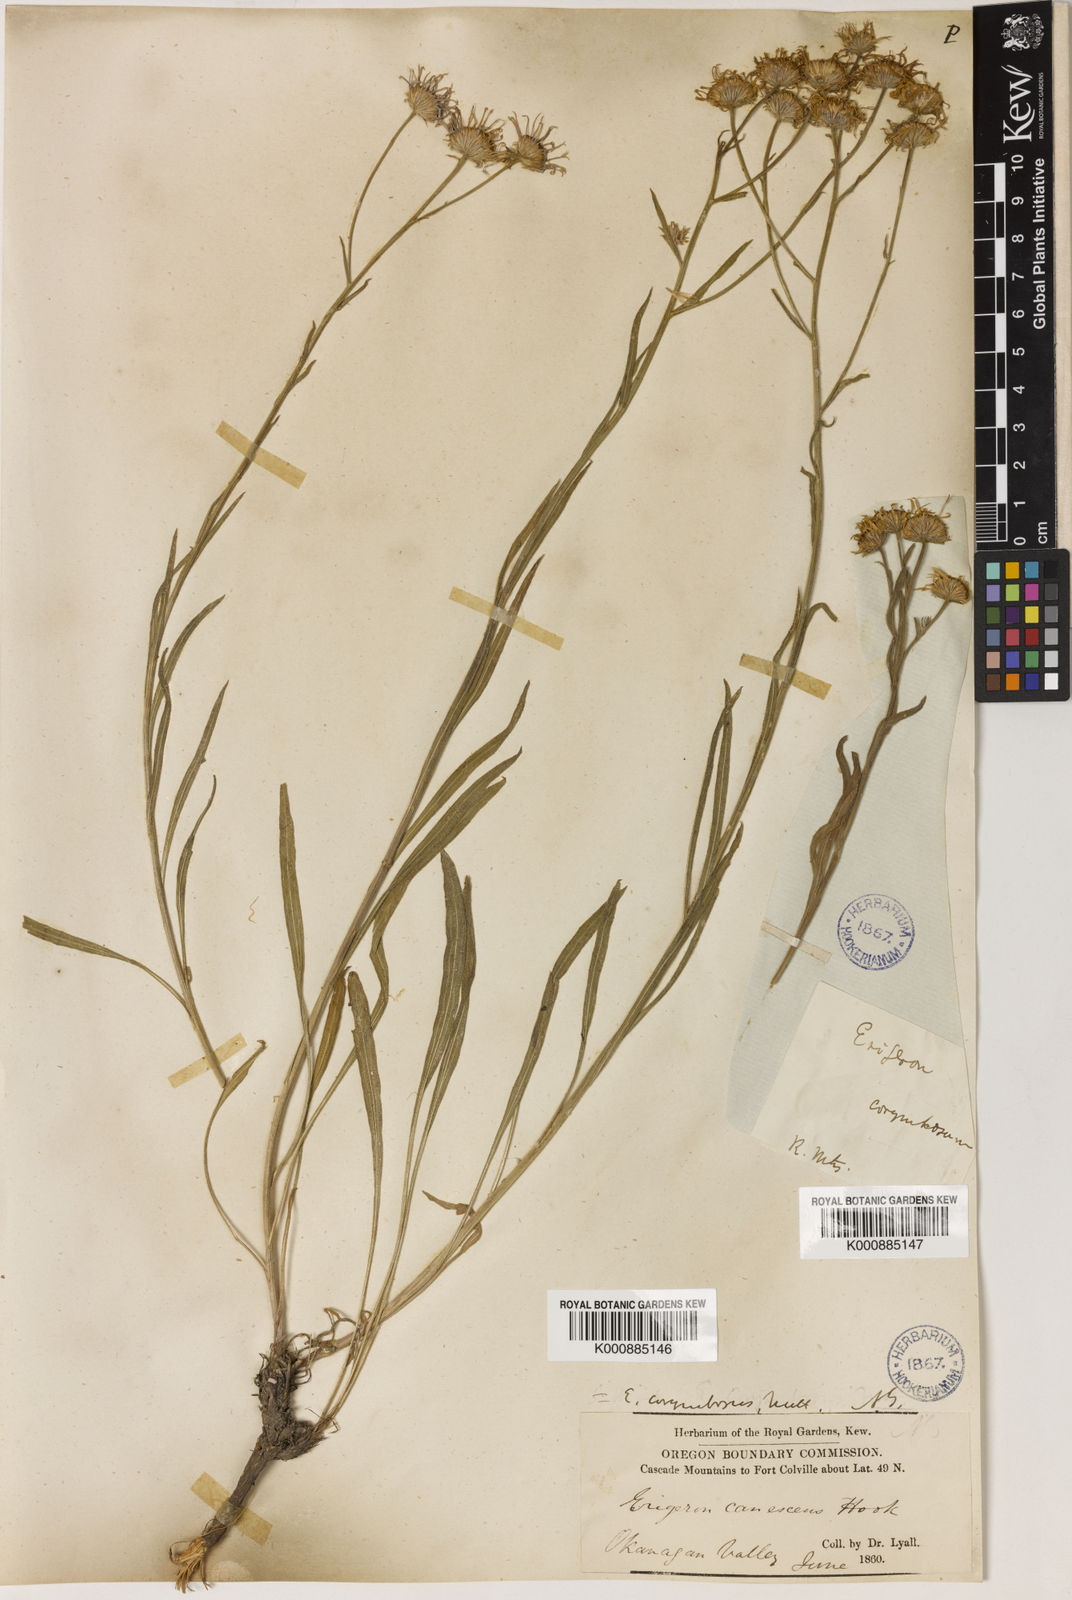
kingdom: Plantae
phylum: Tracheophyta
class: Magnoliopsida
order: Asterales
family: Asteraceae
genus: Erigeron
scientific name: Erigeron corymbosus
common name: Longleaf fleabane
